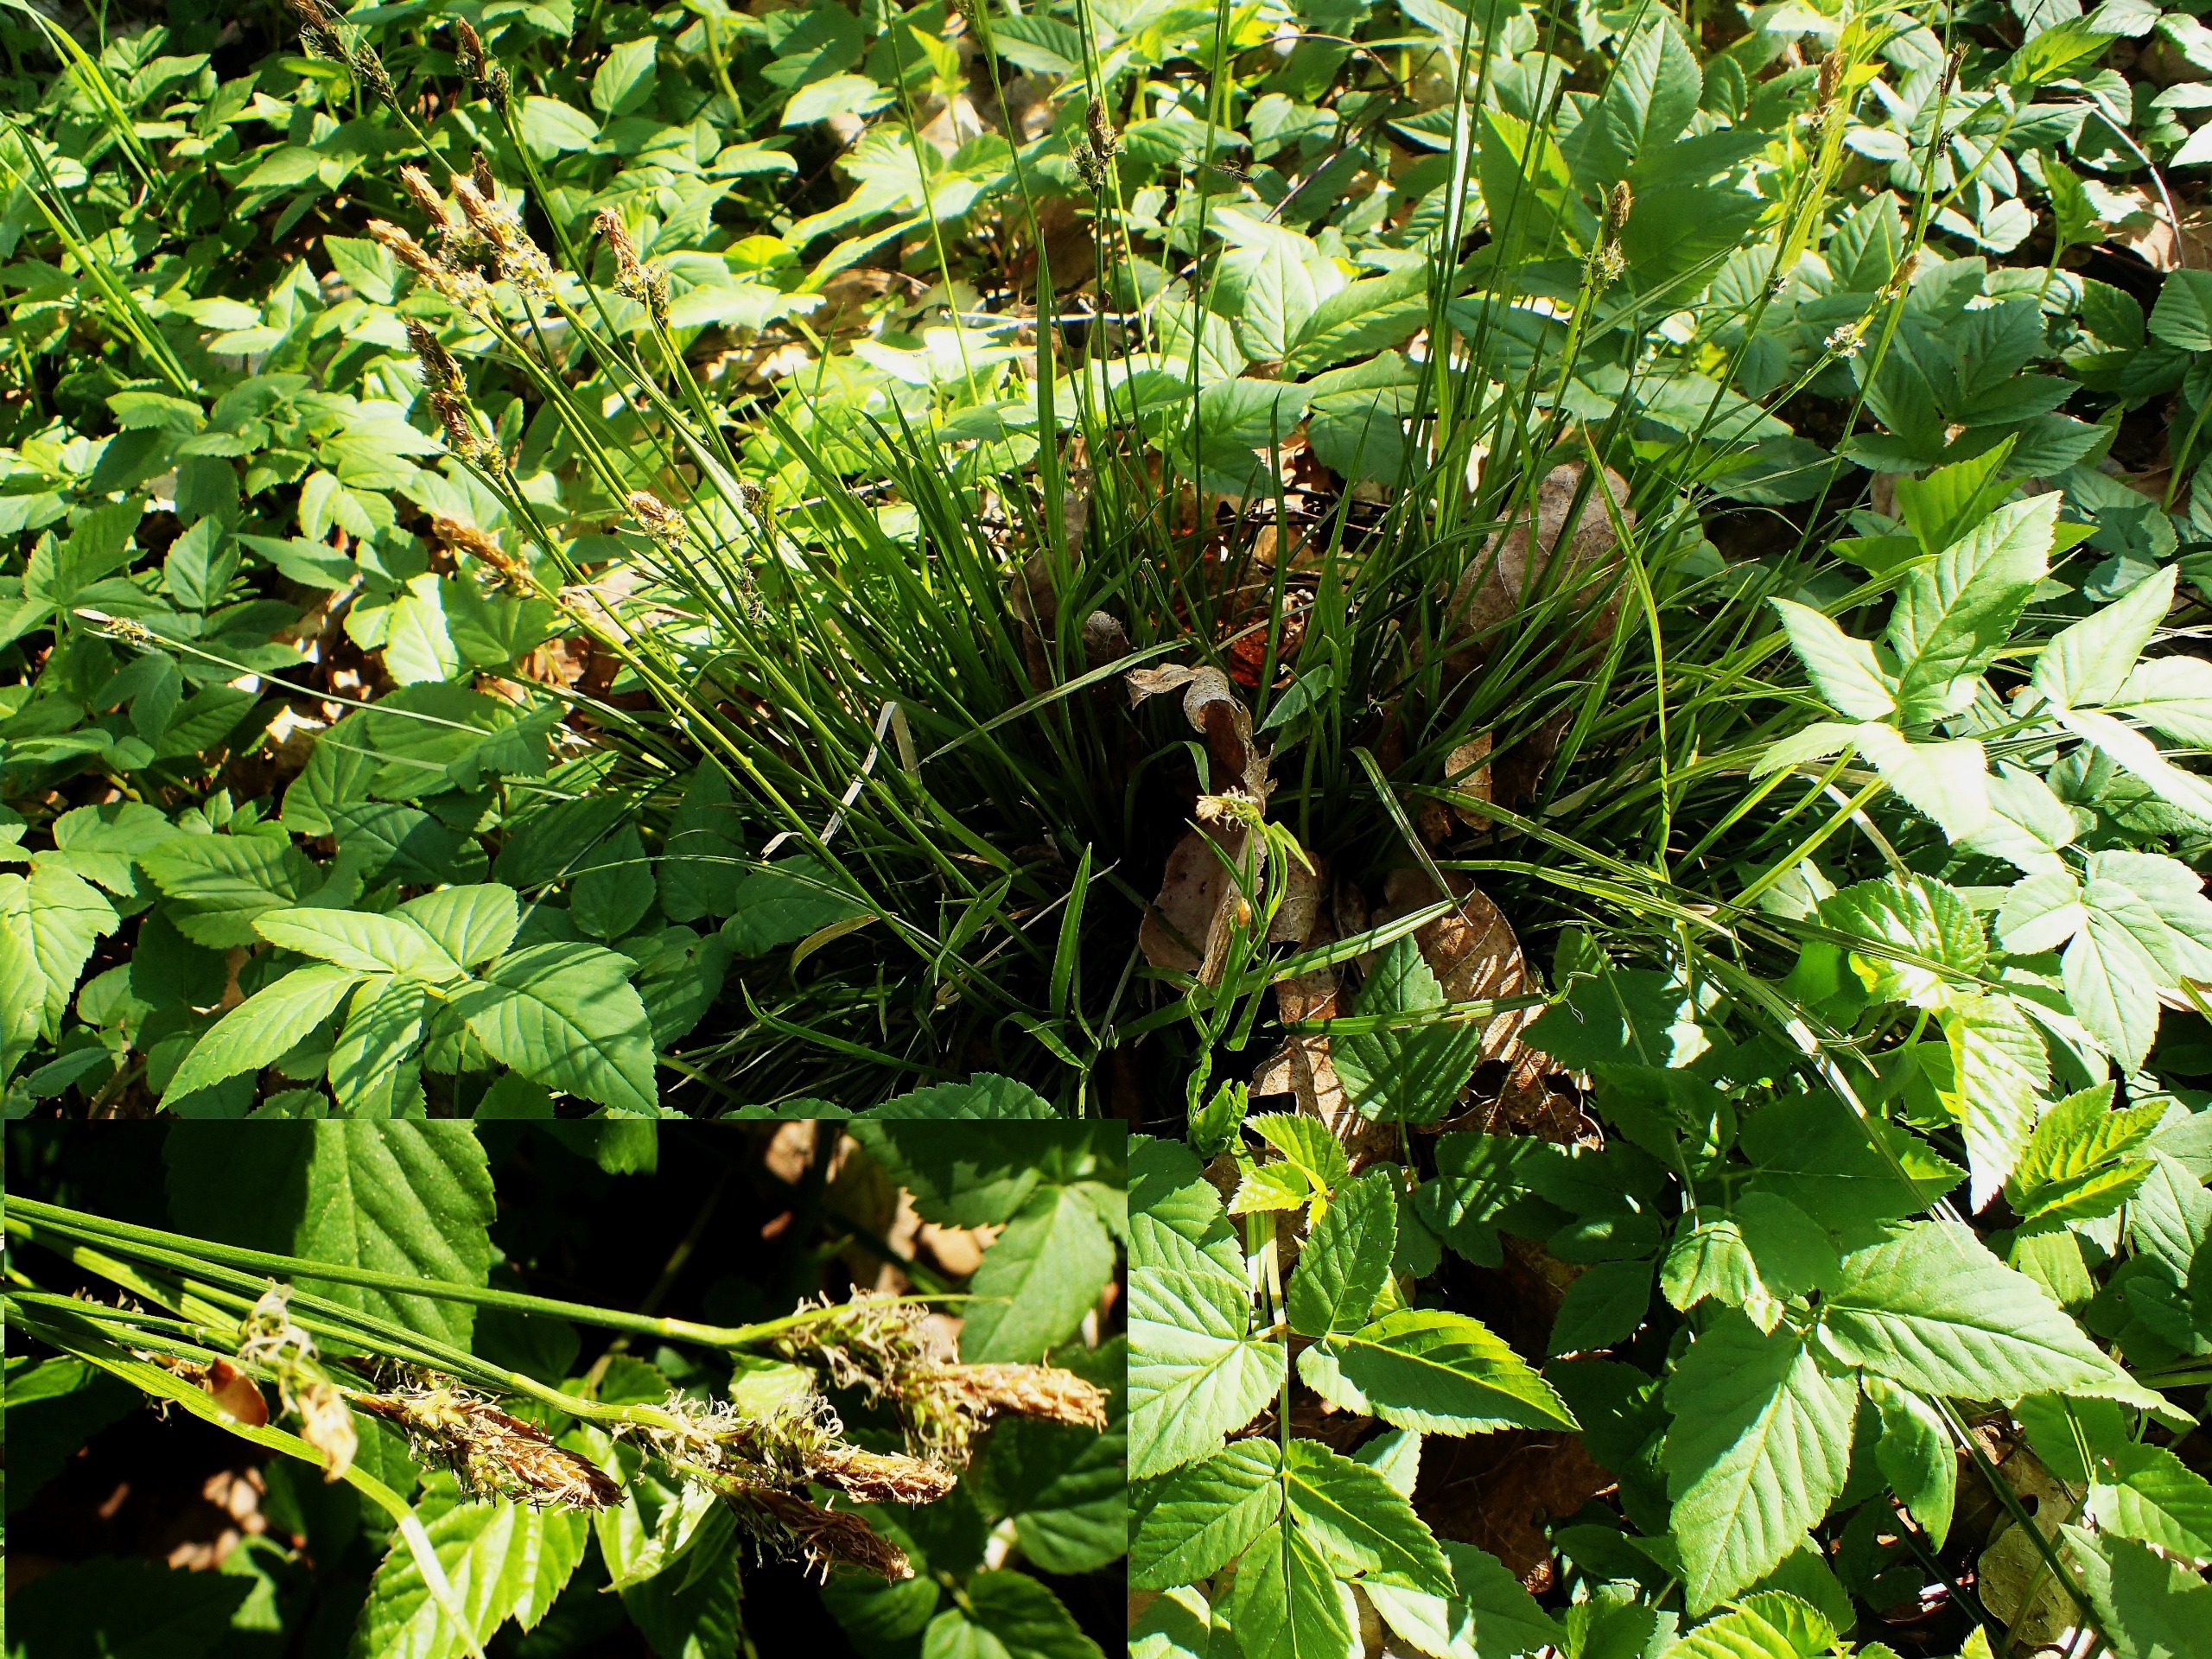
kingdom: Plantae
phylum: Tracheophyta
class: Liliopsida
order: Poales
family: Cyperaceae
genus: Carex
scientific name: Carex caryophyllea
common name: Vår-star
